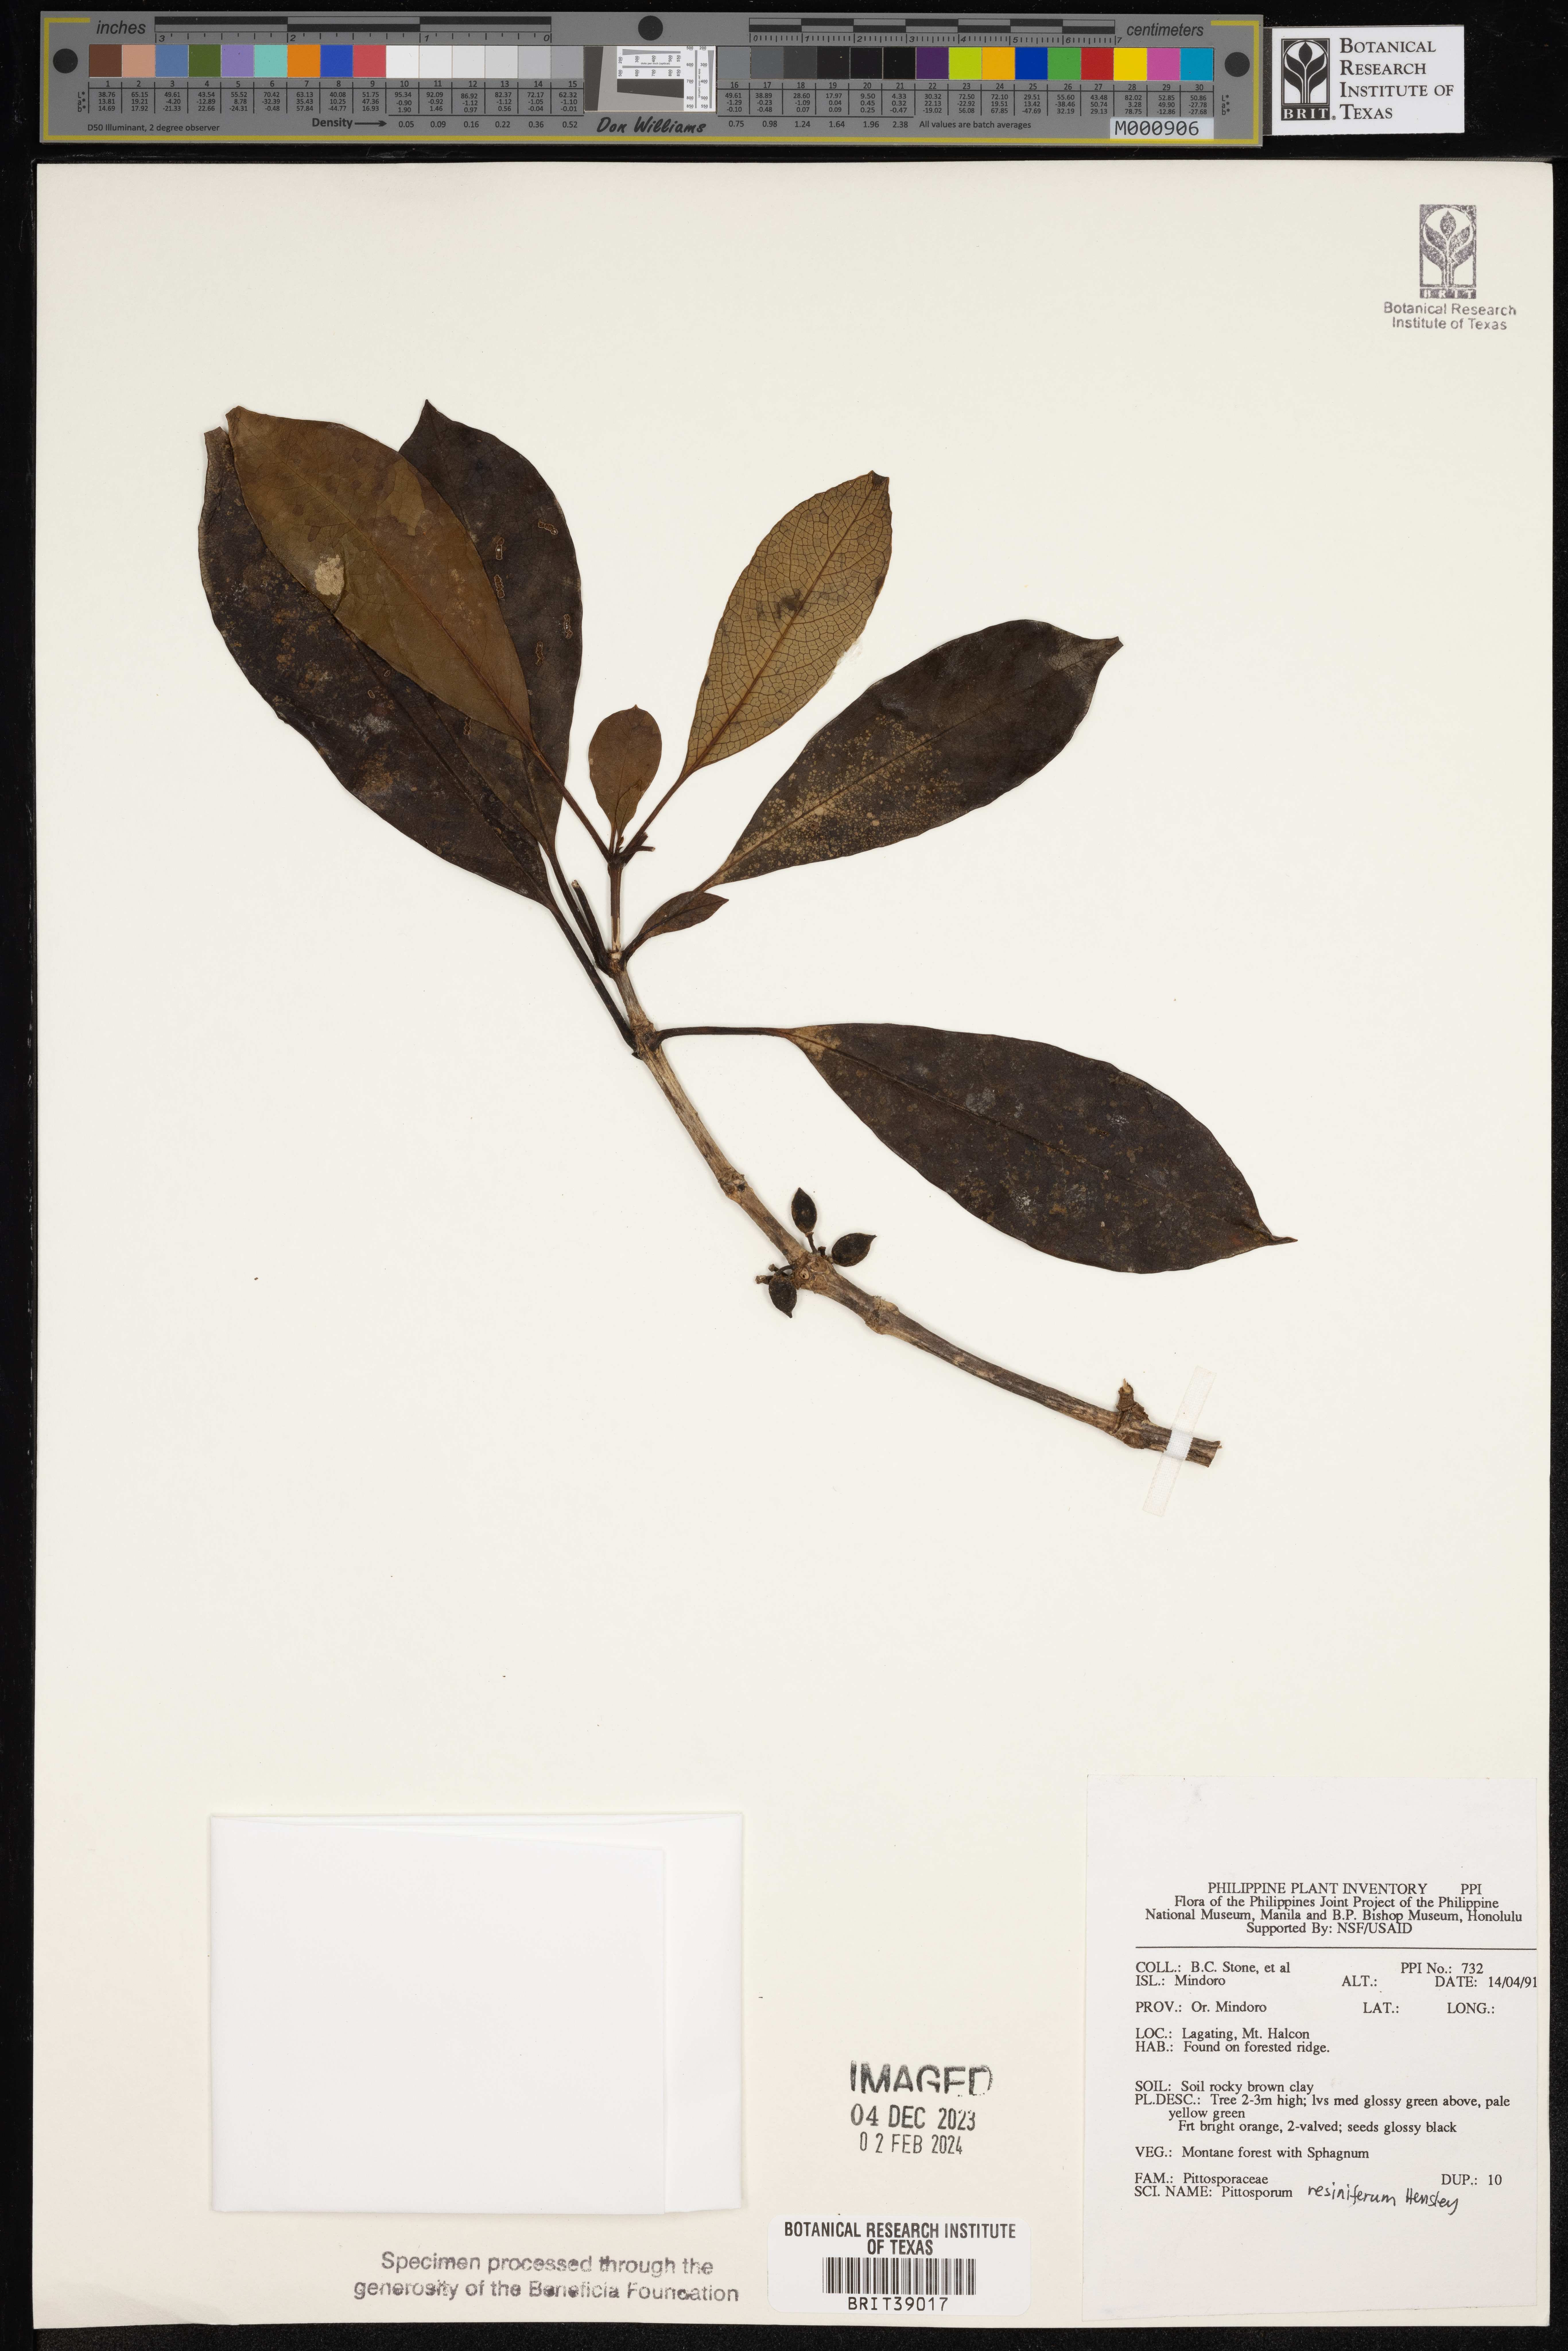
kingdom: Plantae
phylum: Tracheophyta
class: Magnoliopsida
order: Apiales
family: Pittosporaceae
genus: Pittosporum
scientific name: Pittosporum resiniferum
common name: Petroleum-nut
